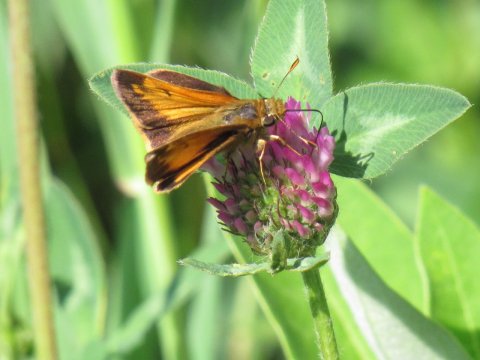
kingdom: Animalia
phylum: Arthropoda
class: Insecta
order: Lepidoptera
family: Hesperiidae
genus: Lon
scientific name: Lon hobomok
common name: Hobomok Skipper
